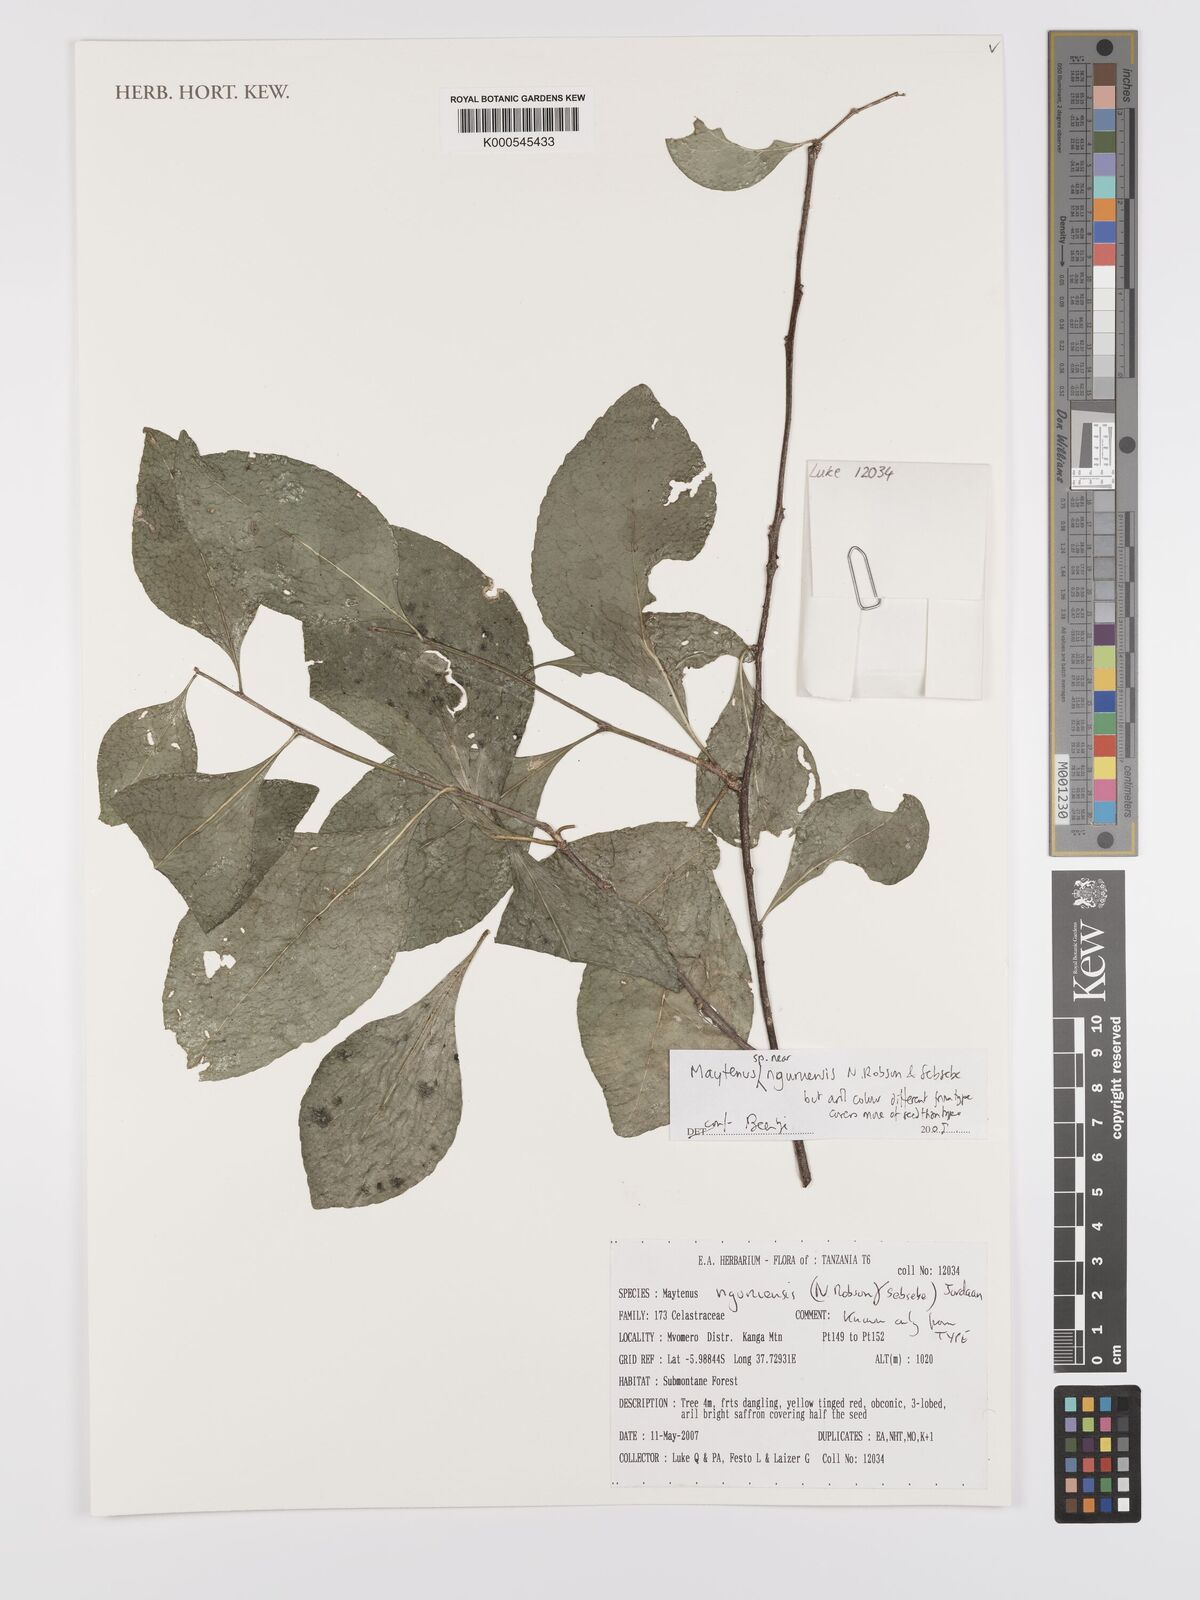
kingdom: Plantae
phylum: Tracheophyta
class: Magnoliopsida
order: Celastrales
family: Celastraceae
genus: Gymnosporia
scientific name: Gymnosporia nguruensis
